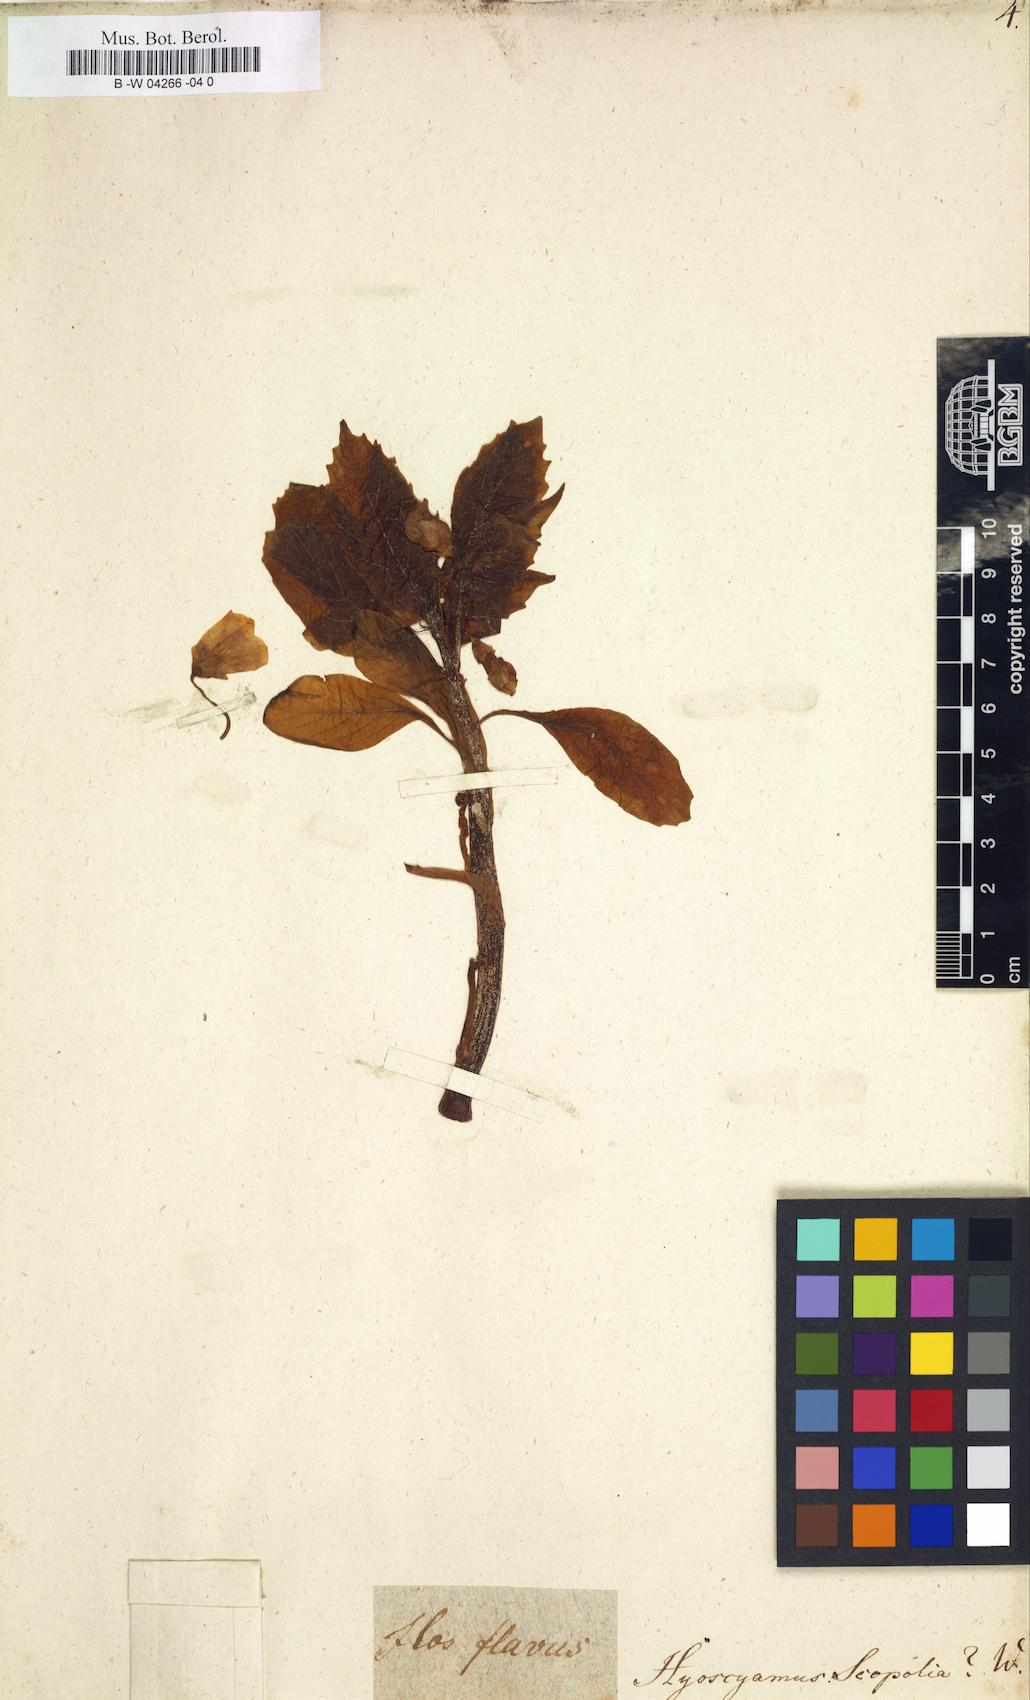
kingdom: Plantae
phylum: Tracheophyta
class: Magnoliopsida
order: Solanales
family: Solanaceae
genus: Scopolia
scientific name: Scopolia carniolica
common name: Scopolia
